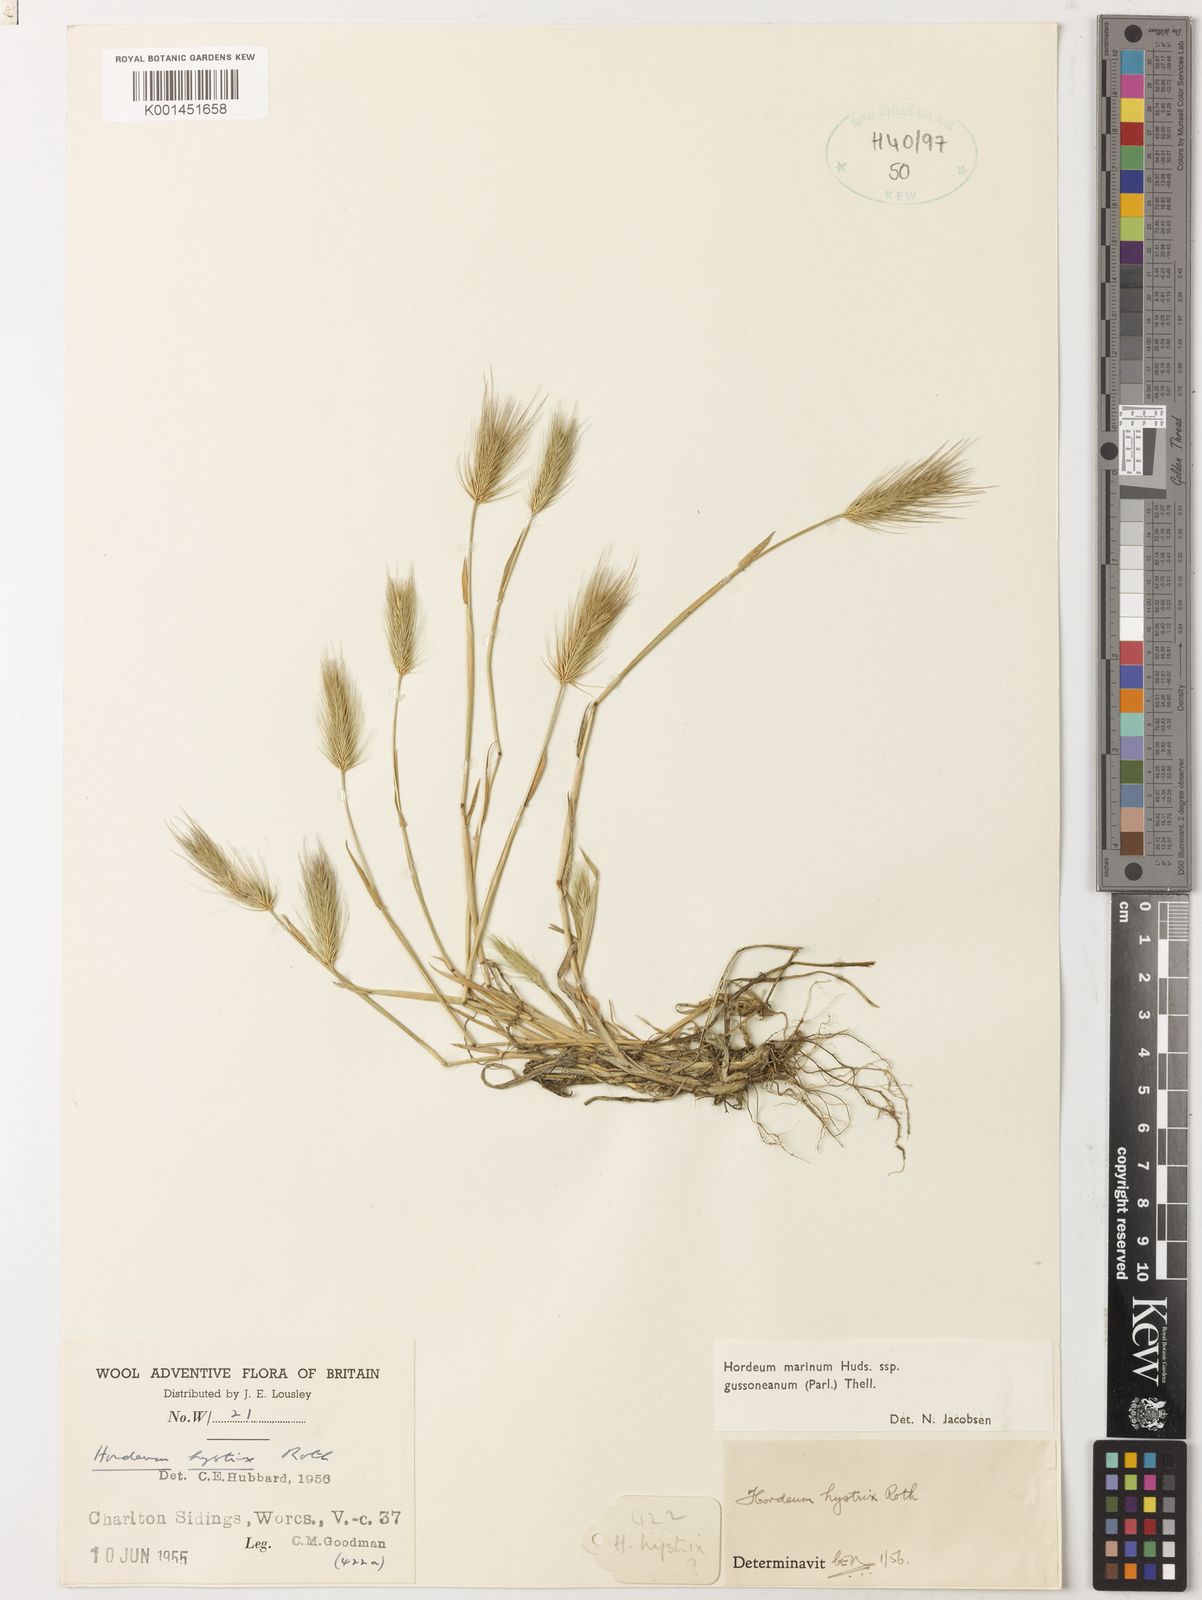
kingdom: Plantae
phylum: Tracheophyta
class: Liliopsida
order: Poales
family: Poaceae
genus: Hordeum
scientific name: Hordeum marinum
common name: Sea barley
